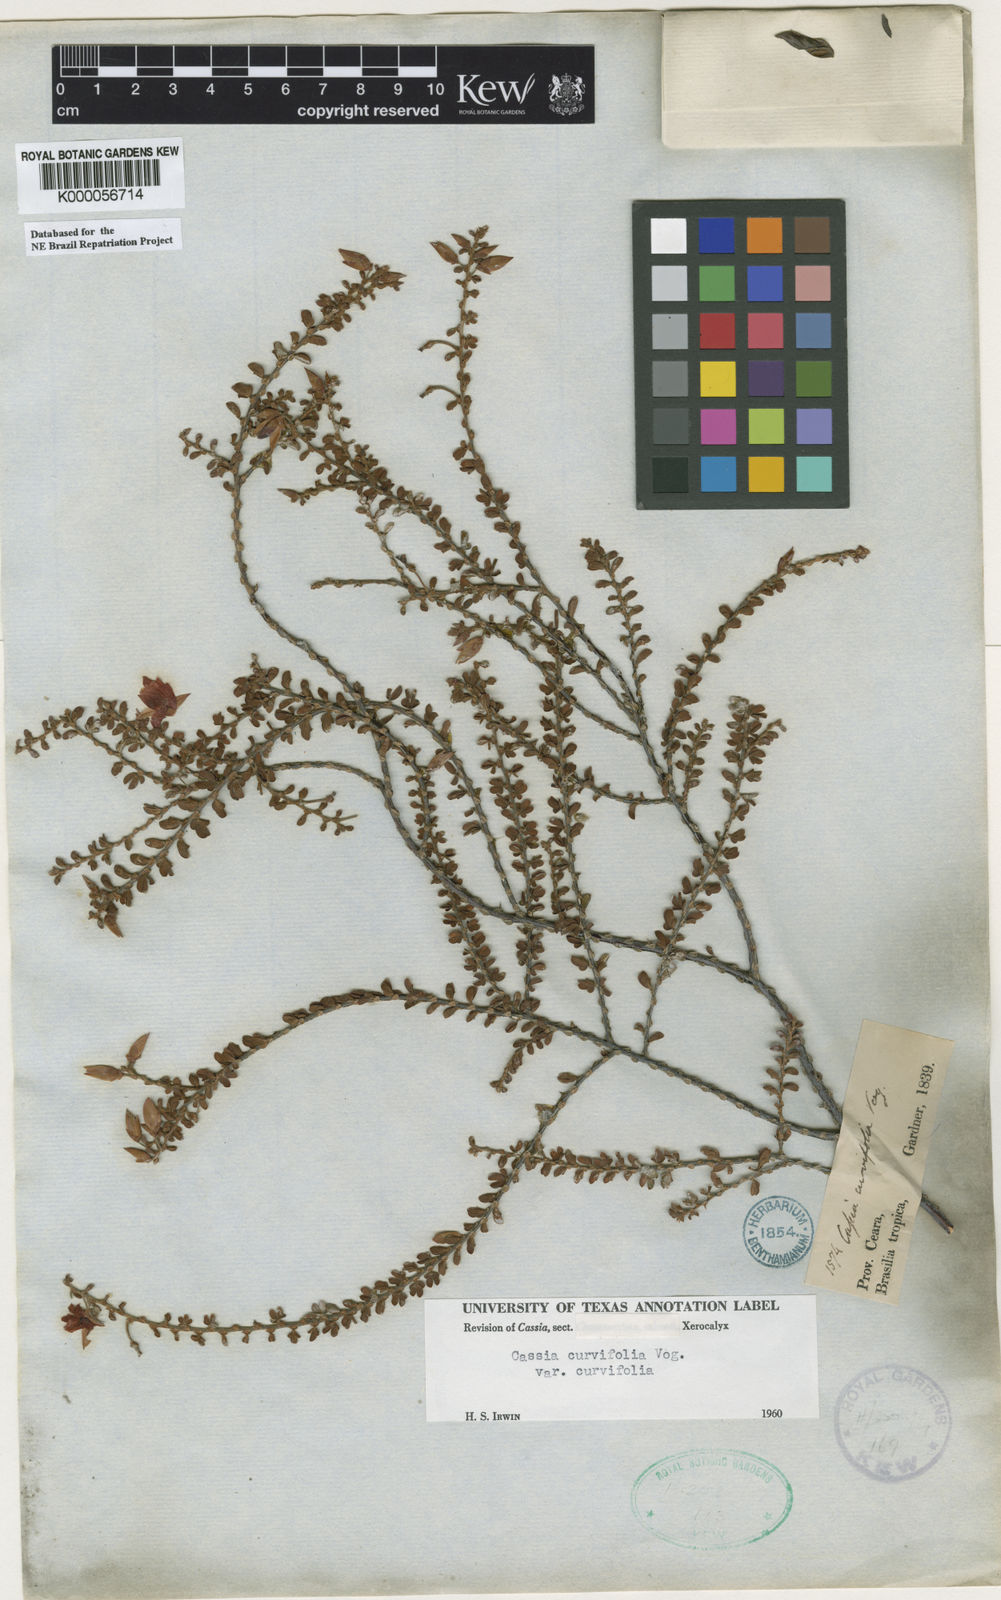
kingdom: Plantae
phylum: Tracheophyta
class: Magnoliopsida
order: Fabales
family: Fabaceae
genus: Chamaecrista
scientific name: Chamaecrista ramosa
